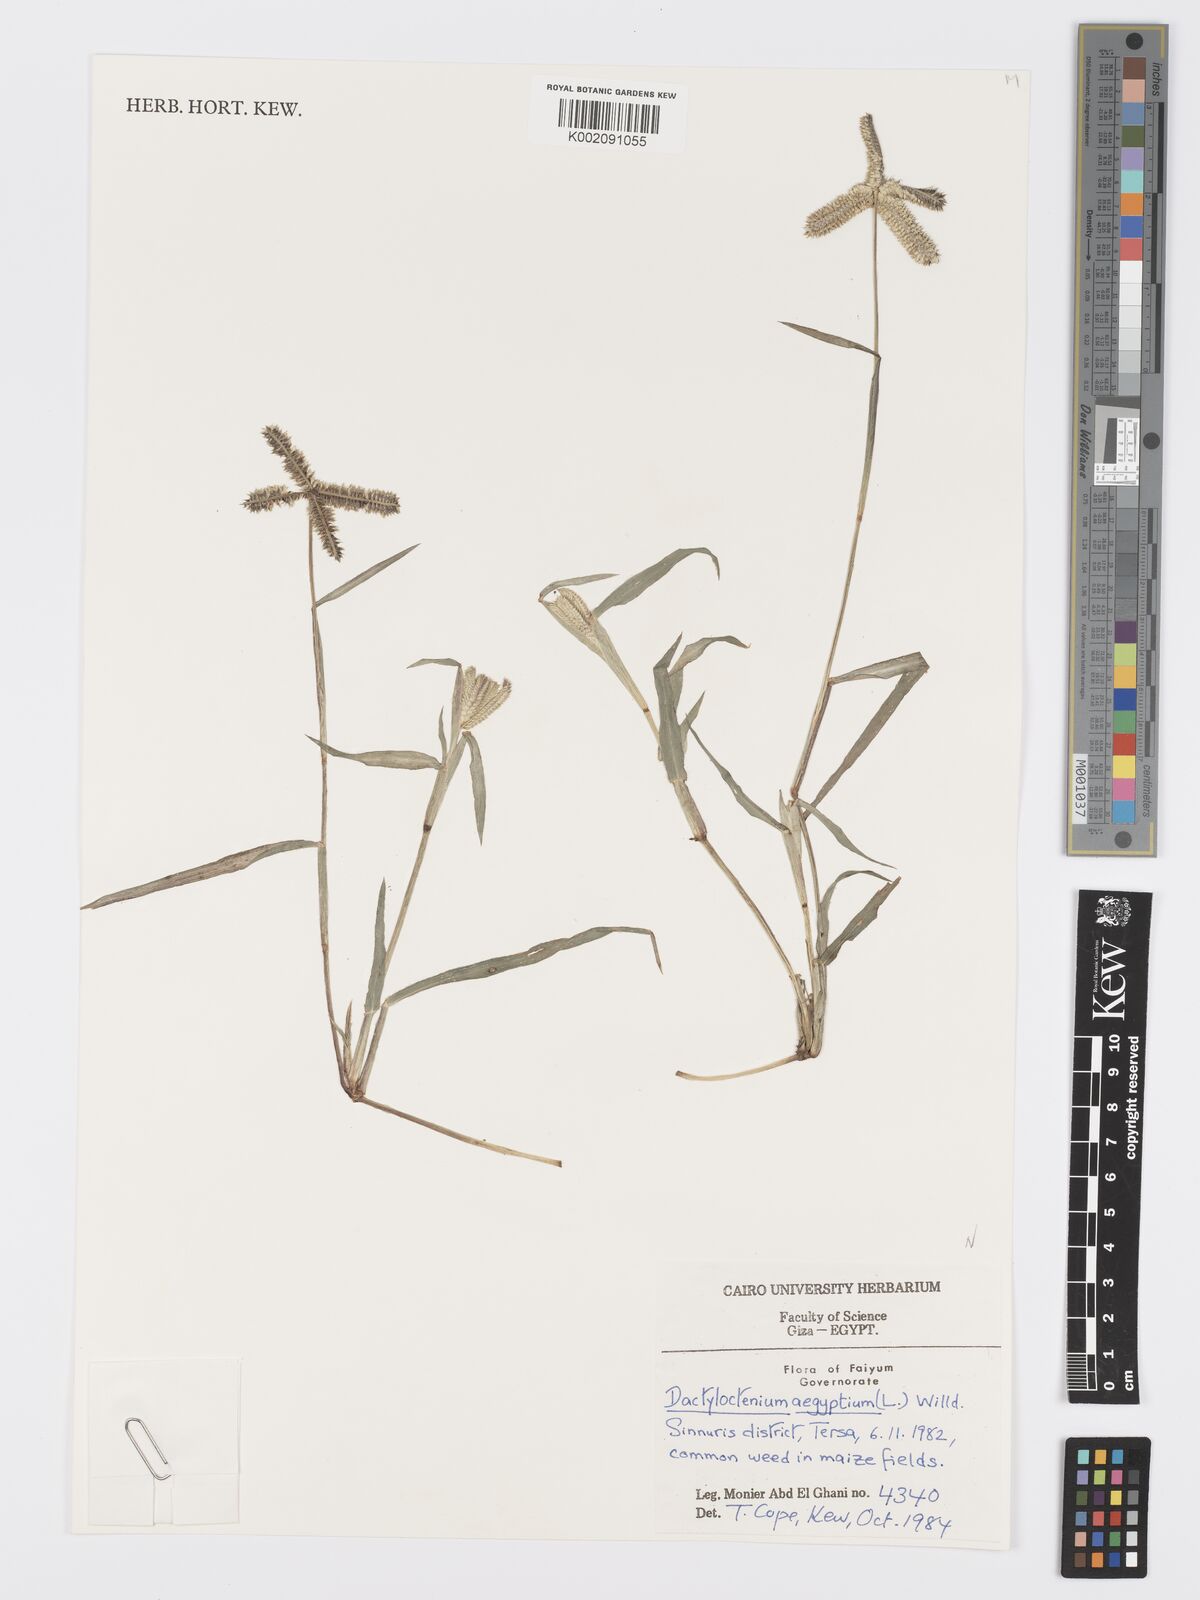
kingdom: Plantae
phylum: Tracheophyta
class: Liliopsida
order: Poales
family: Poaceae
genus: Dactyloctenium
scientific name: Dactyloctenium aegyptium
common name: Egyptian grass
